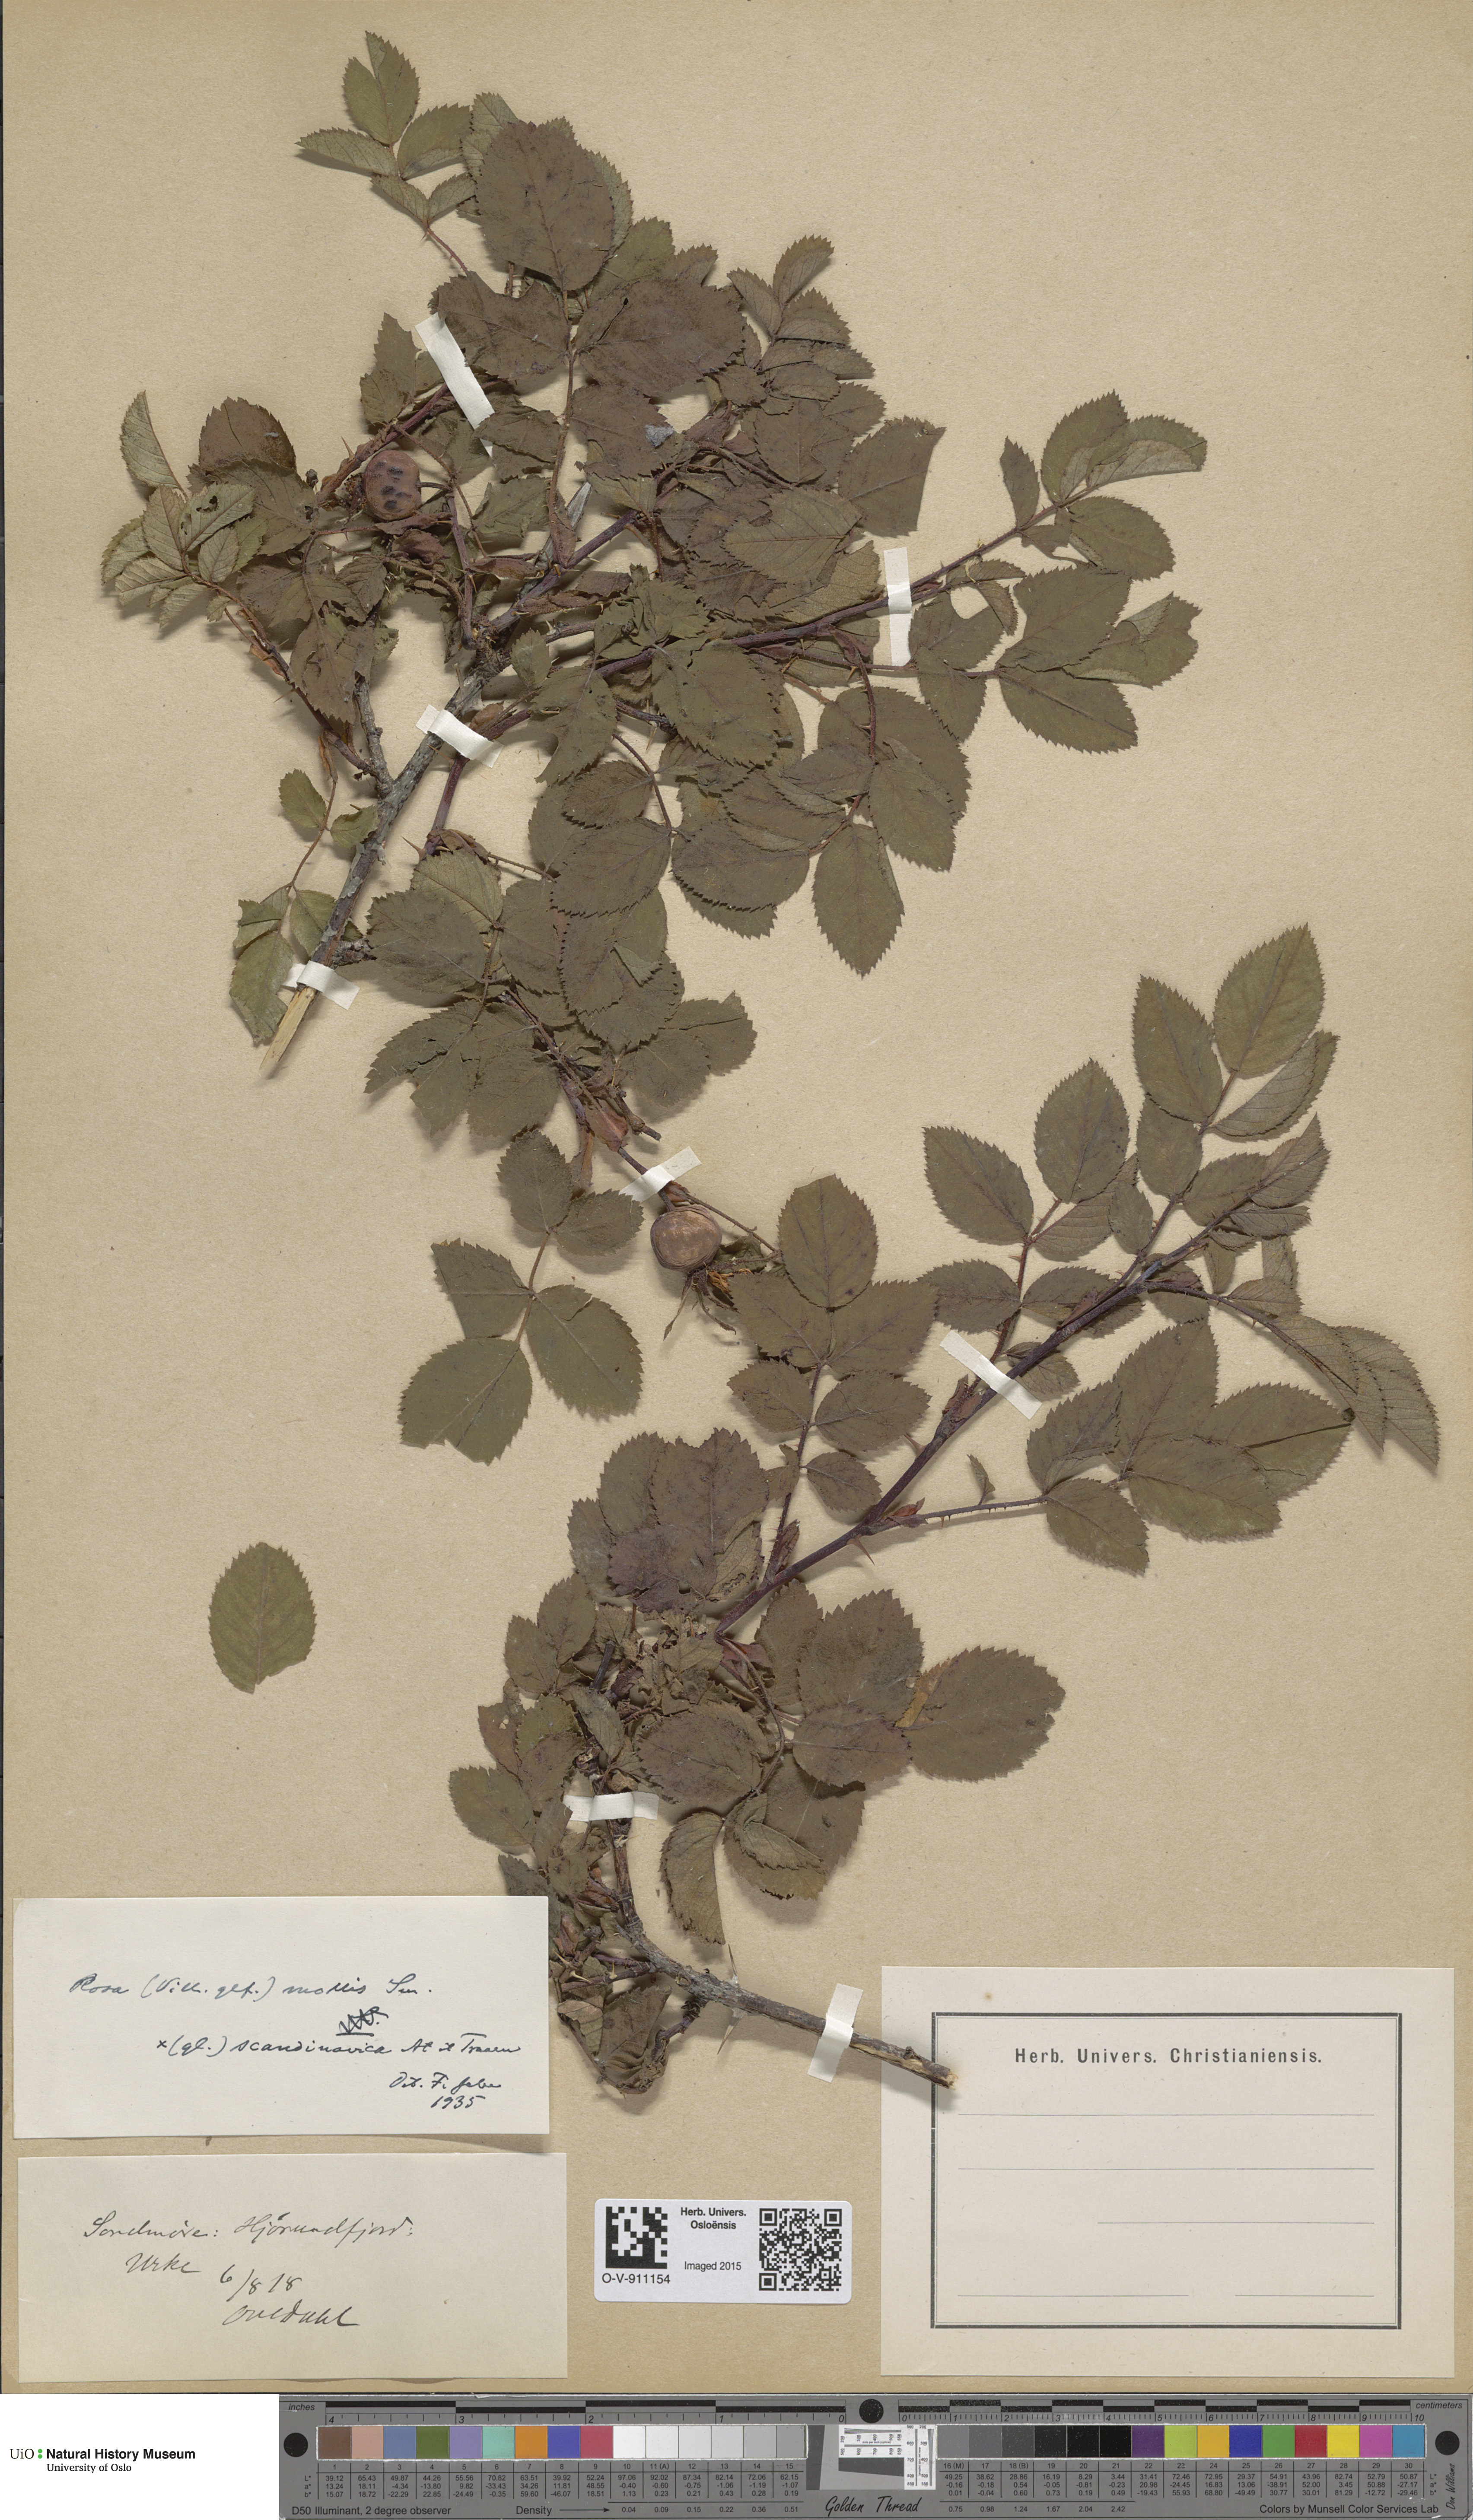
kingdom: Plantae
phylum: Tracheophyta
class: Magnoliopsida
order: Rosales
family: Rosaceae
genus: Rosa
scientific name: Rosa mollis
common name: Rose
